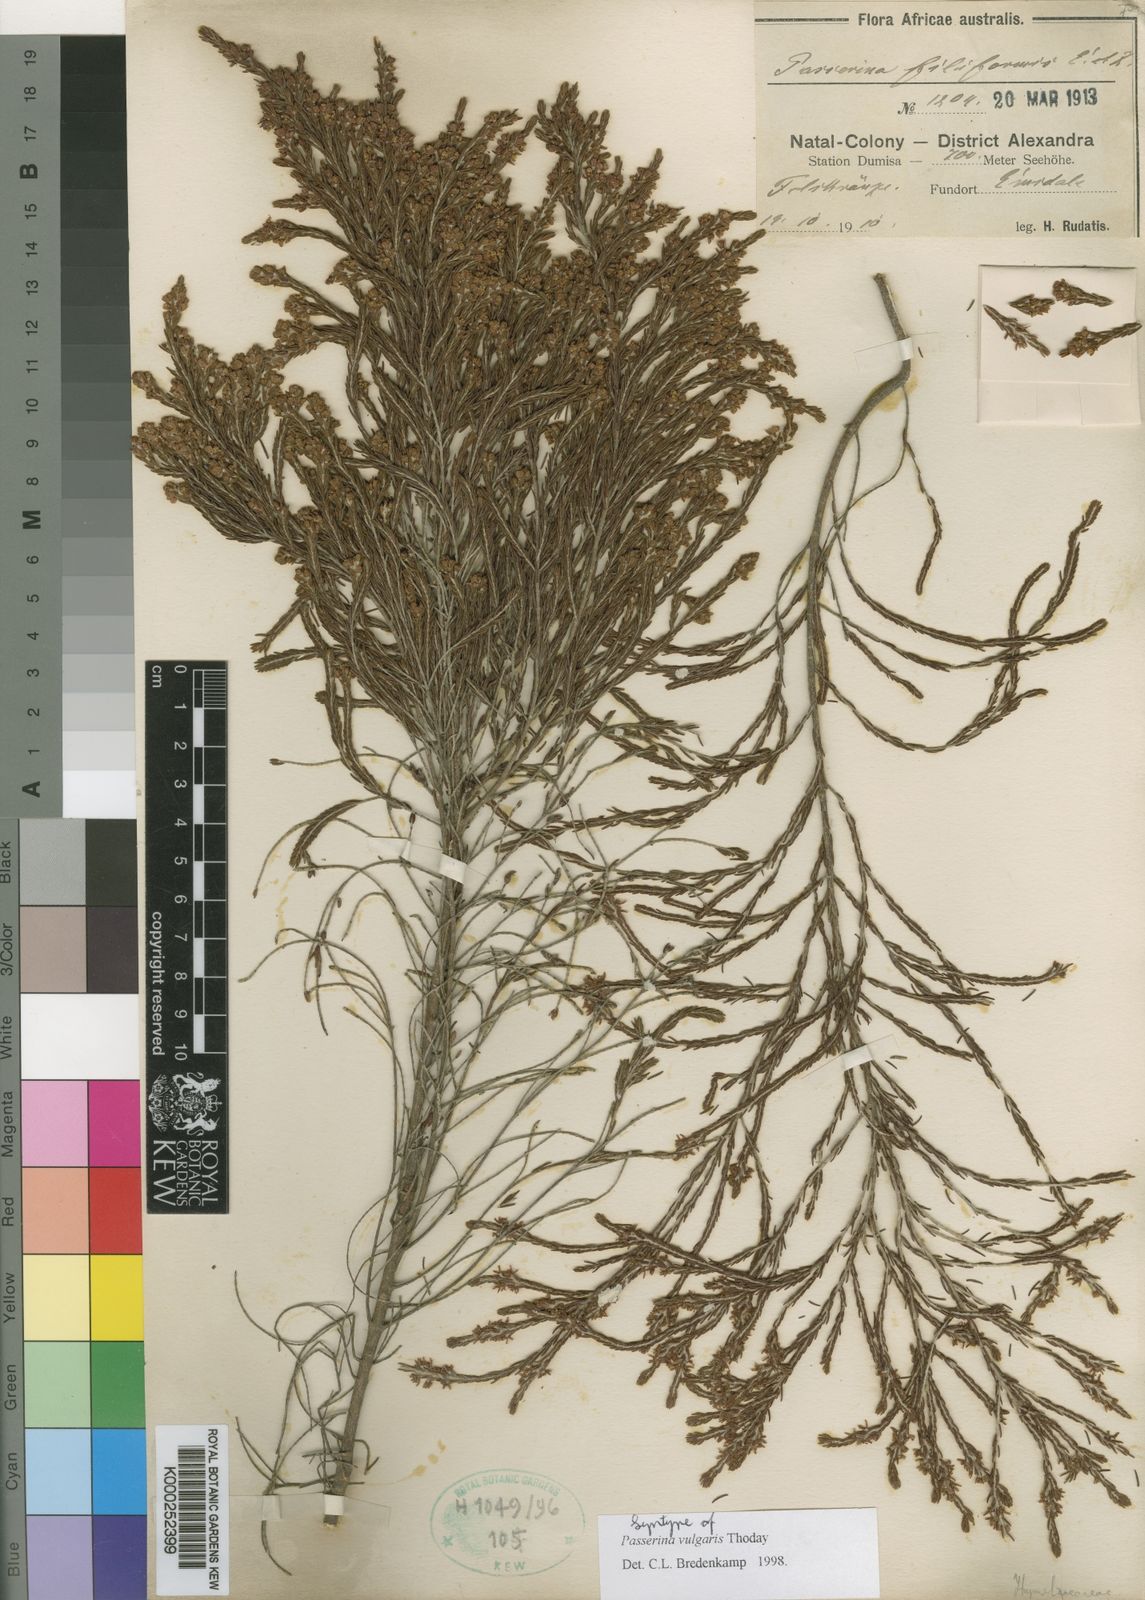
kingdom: Plantae
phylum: Tracheophyta
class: Magnoliopsida
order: Malvales
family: Thymelaeaceae
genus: Passerina
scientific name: Passerina corymbosa
